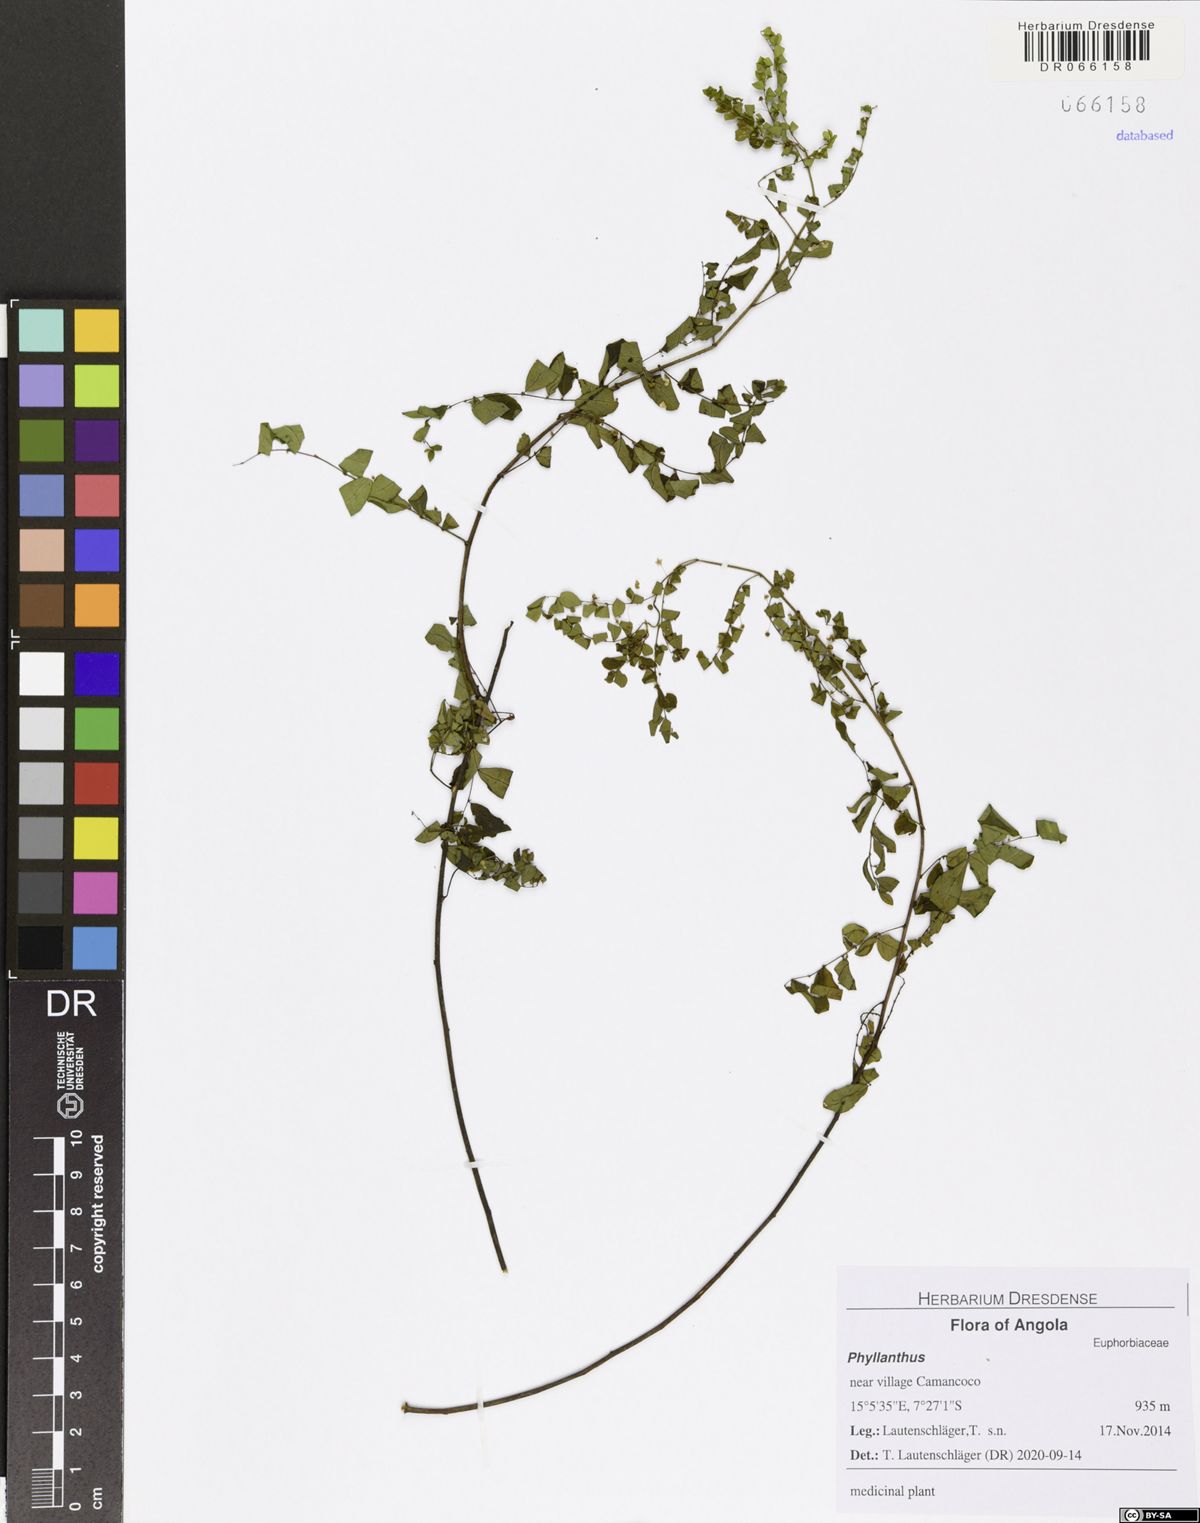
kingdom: Plantae
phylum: Tracheophyta
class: Magnoliopsida
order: Malpighiales
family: Phyllanthaceae
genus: Phyllanthus
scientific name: Phyllanthus
